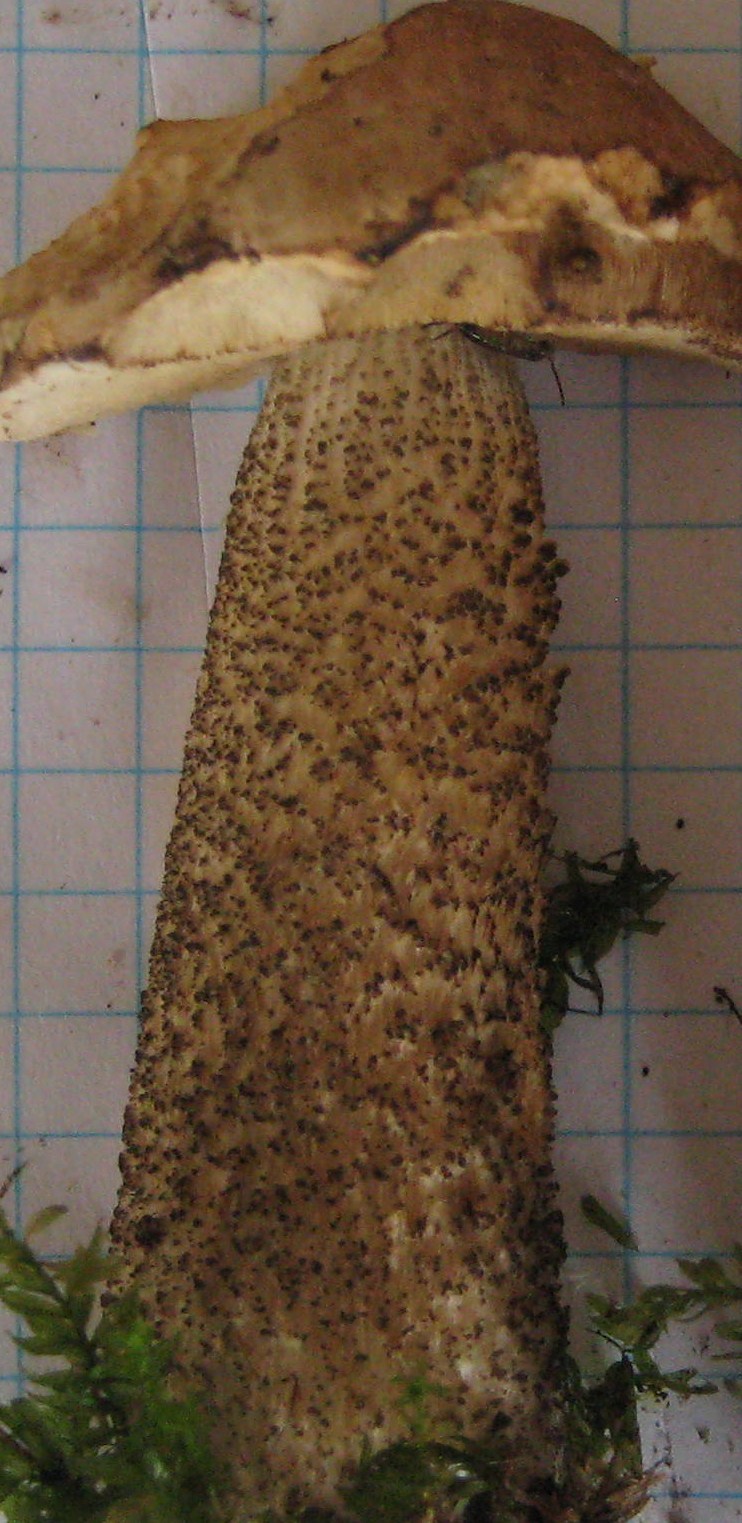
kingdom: Fungi
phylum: Basidiomycota
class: Agaricomycetes
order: Boletales
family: Boletaceae
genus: Leccinum
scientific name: Leccinum scabrum
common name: brun skælrørhat
